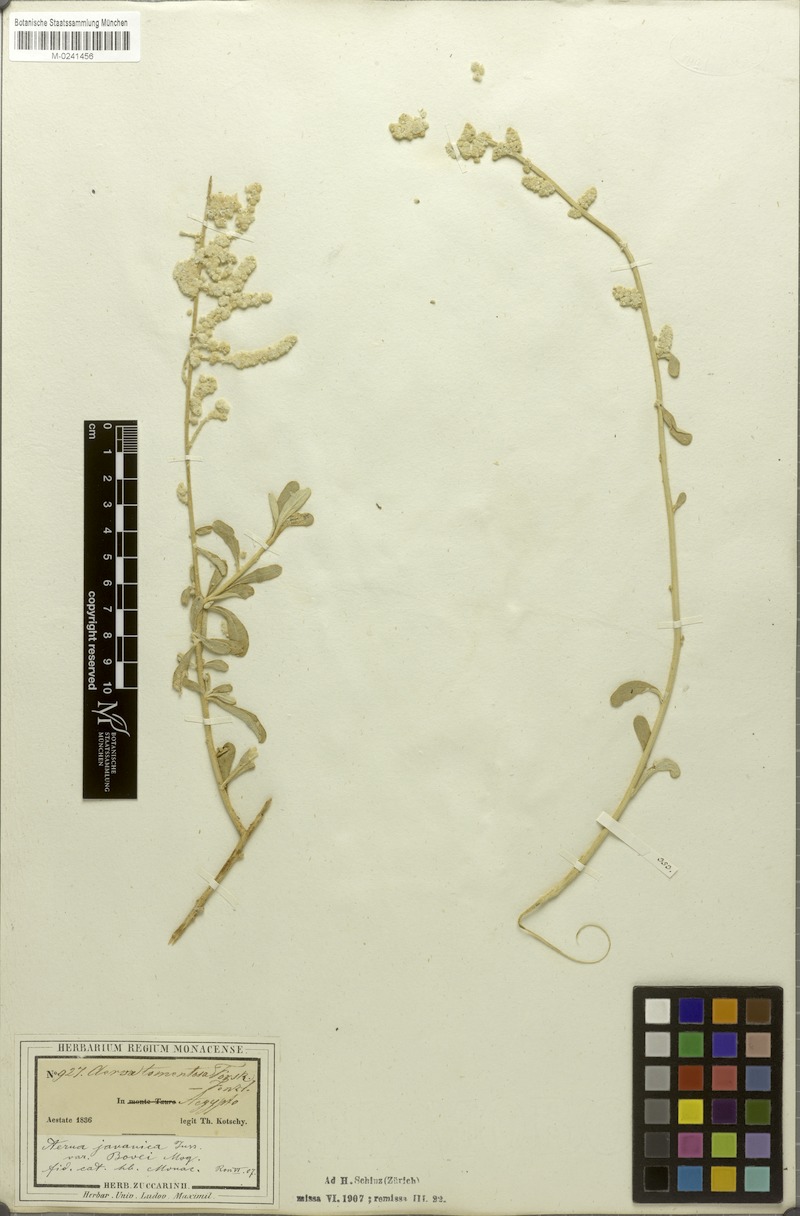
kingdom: Plantae
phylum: Tracheophyta
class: Magnoliopsida
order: Caryophyllales
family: Amaranthaceae
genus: Aerva
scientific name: Aerva javanica
